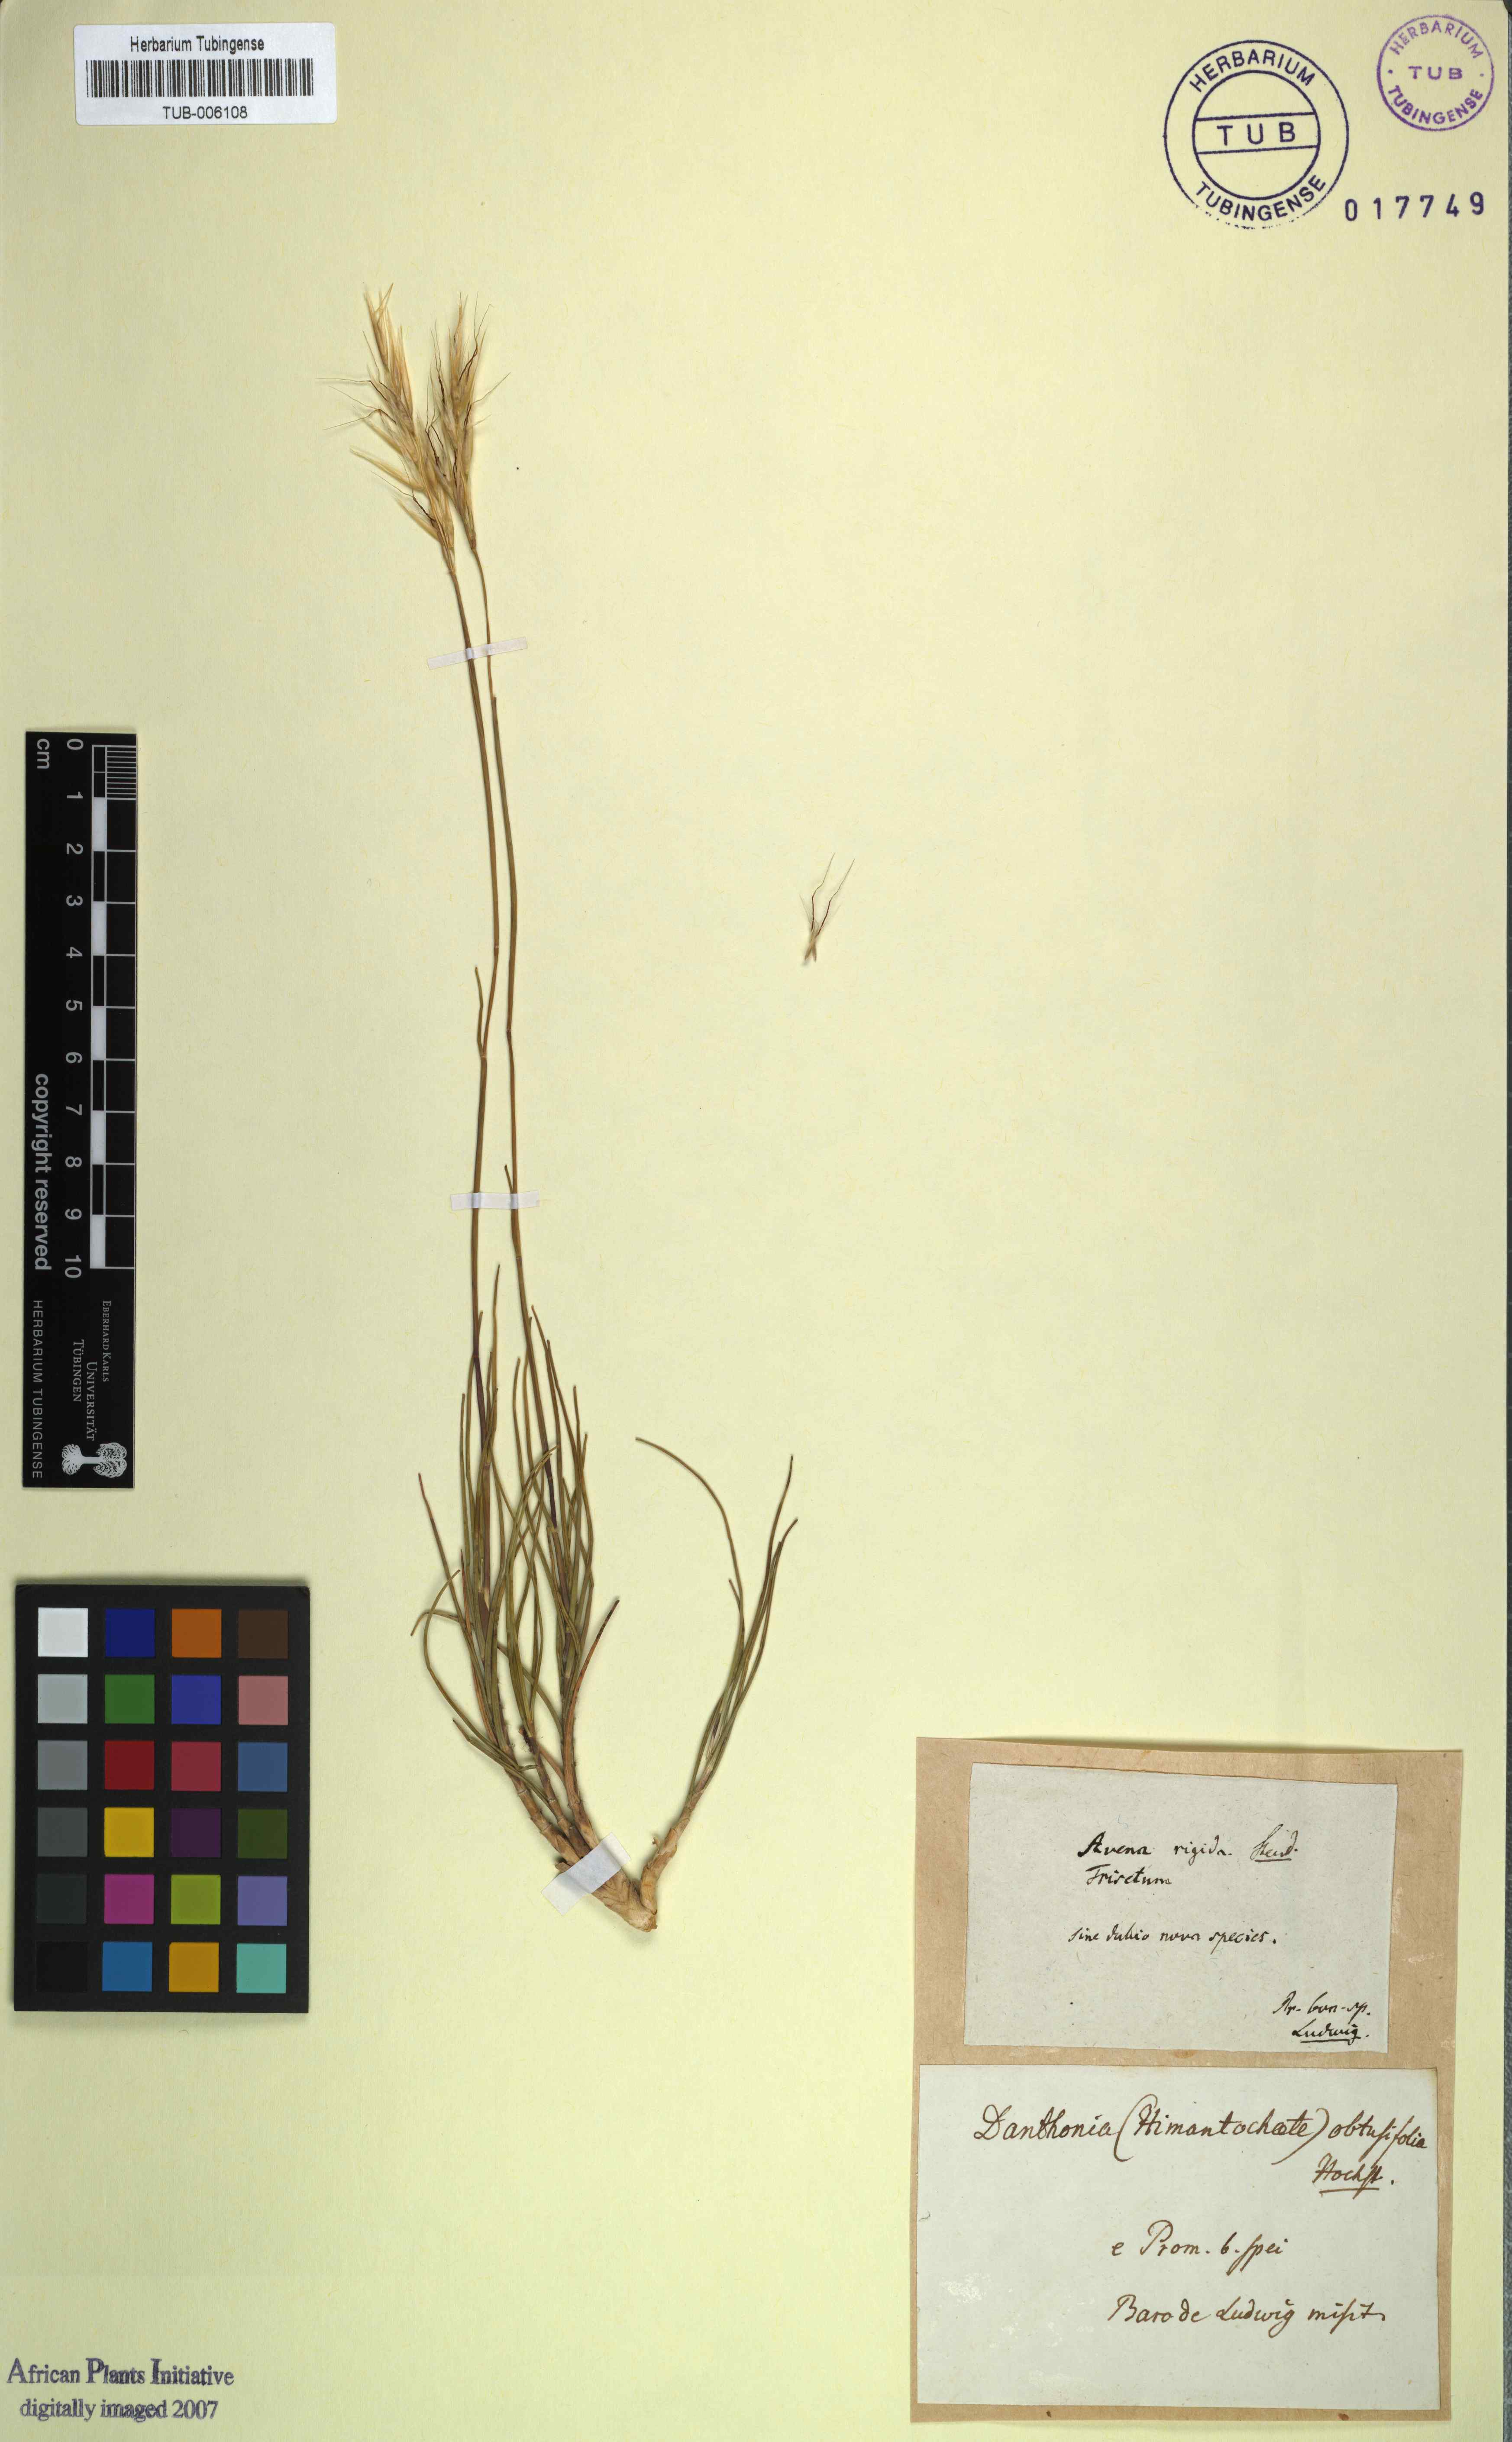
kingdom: Plantae
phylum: Tracheophyta
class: Liliopsida
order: Poales
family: Poaceae
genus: Pseudopentameris
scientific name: Pseudopentameris obtusifolia
